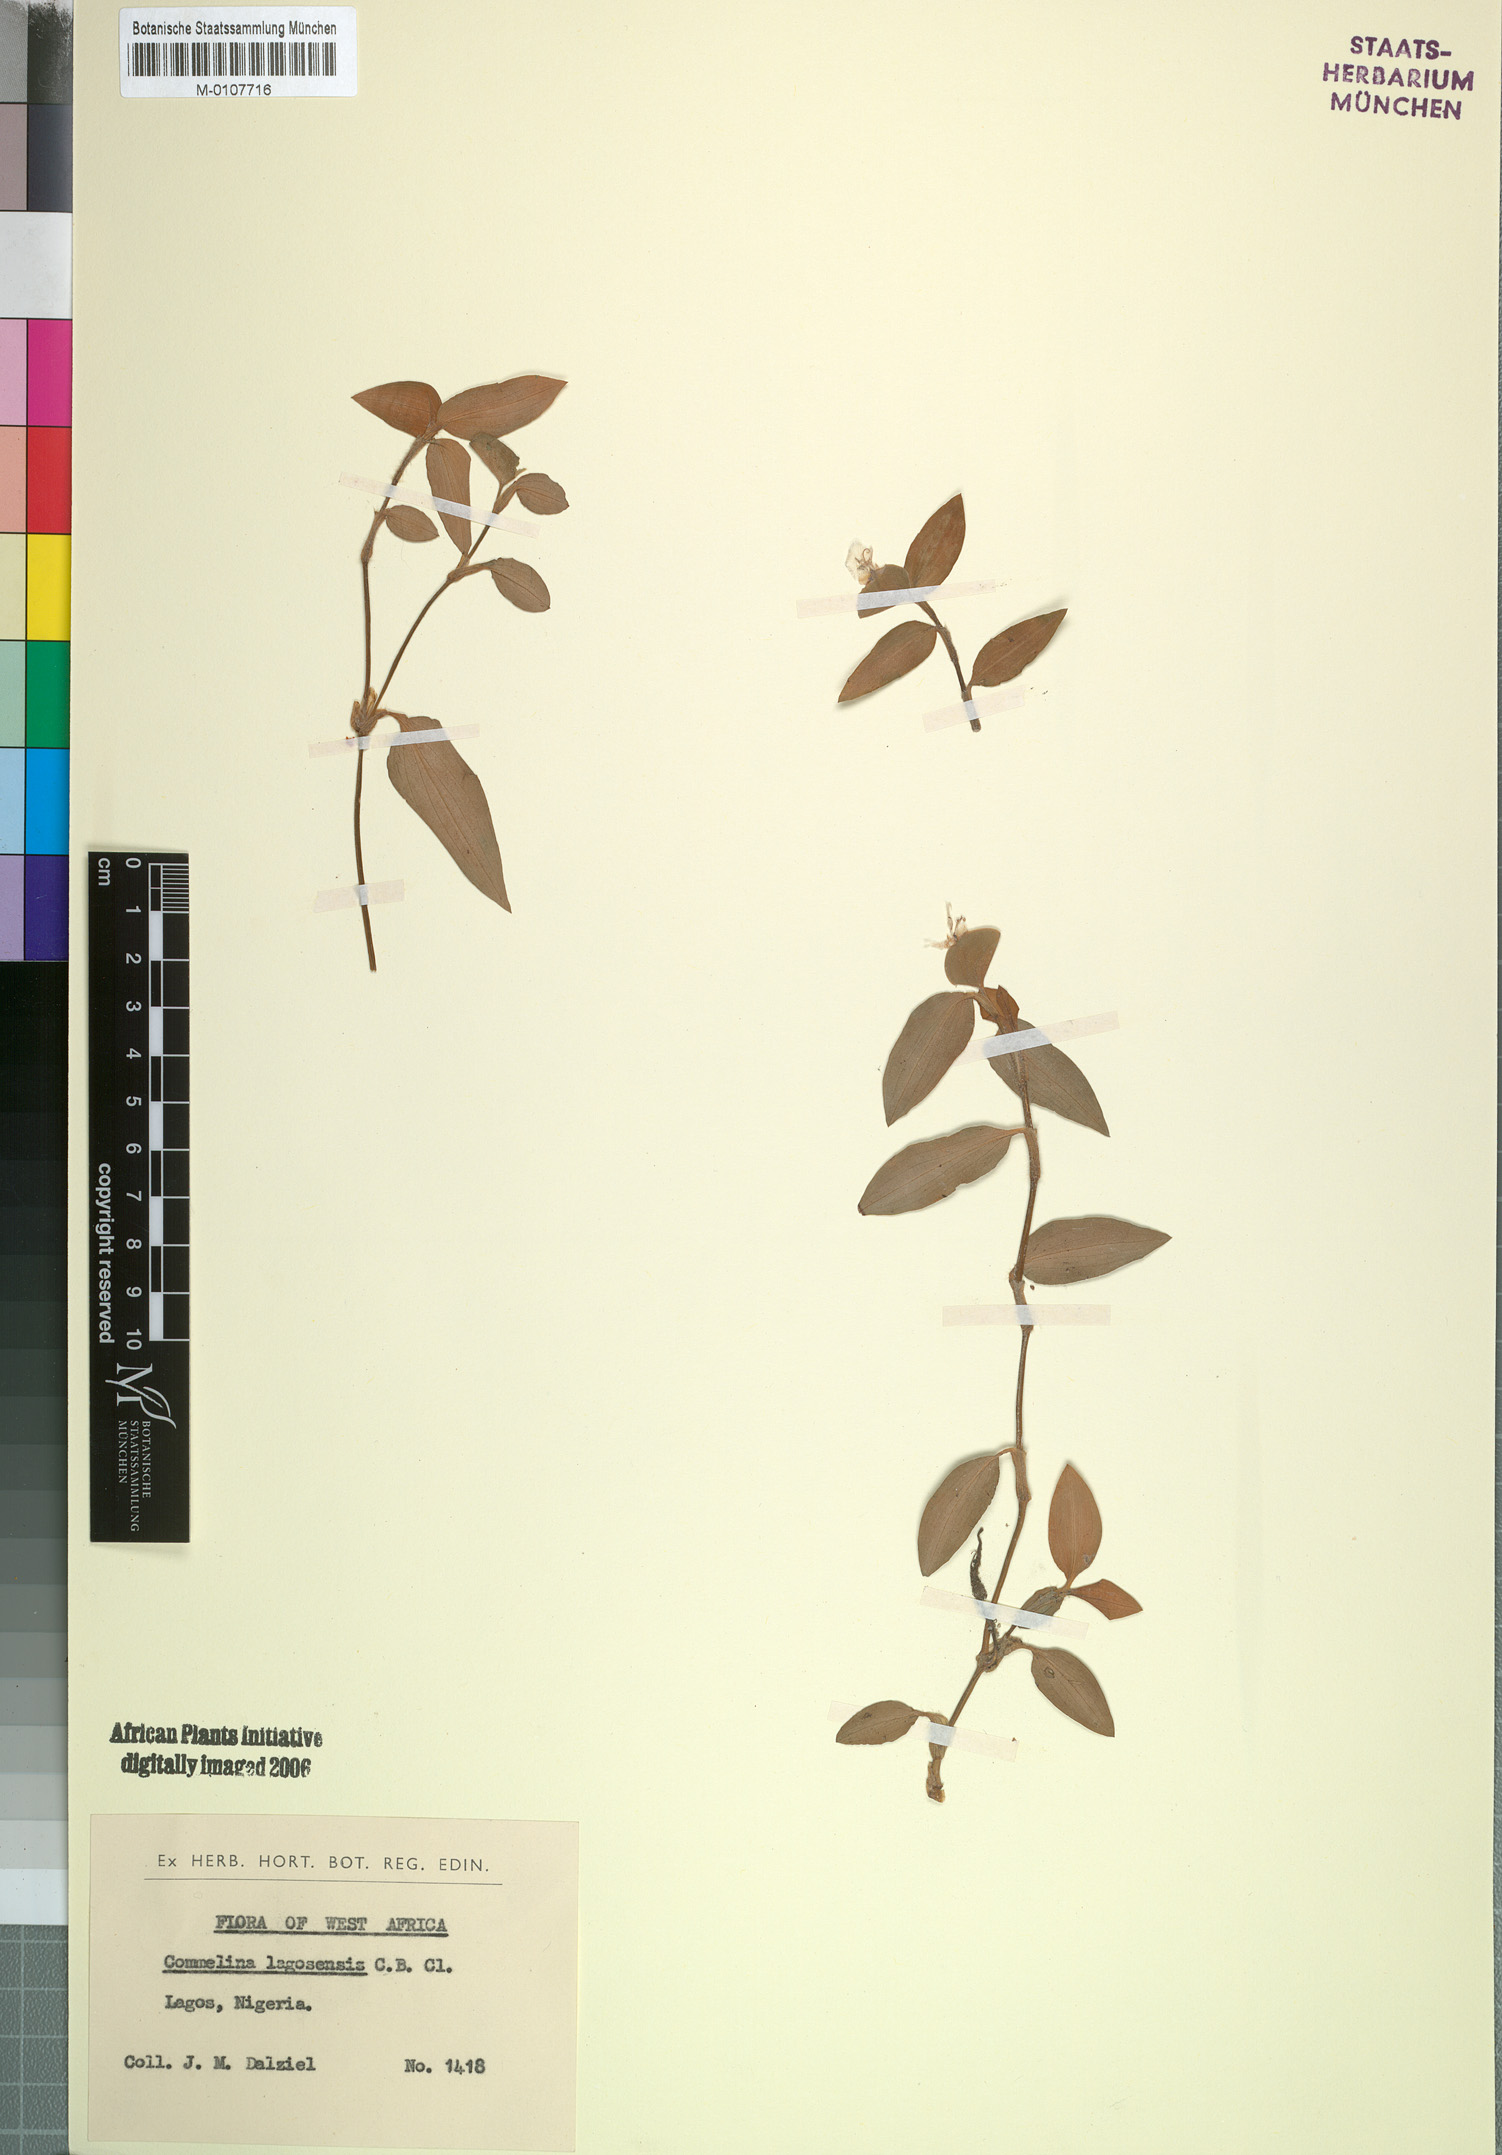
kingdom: Plantae
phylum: Tracheophyta
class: Liliopsida
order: Commelinales
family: Commelinaceae
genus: Commelina
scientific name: Commelina bracteosa
